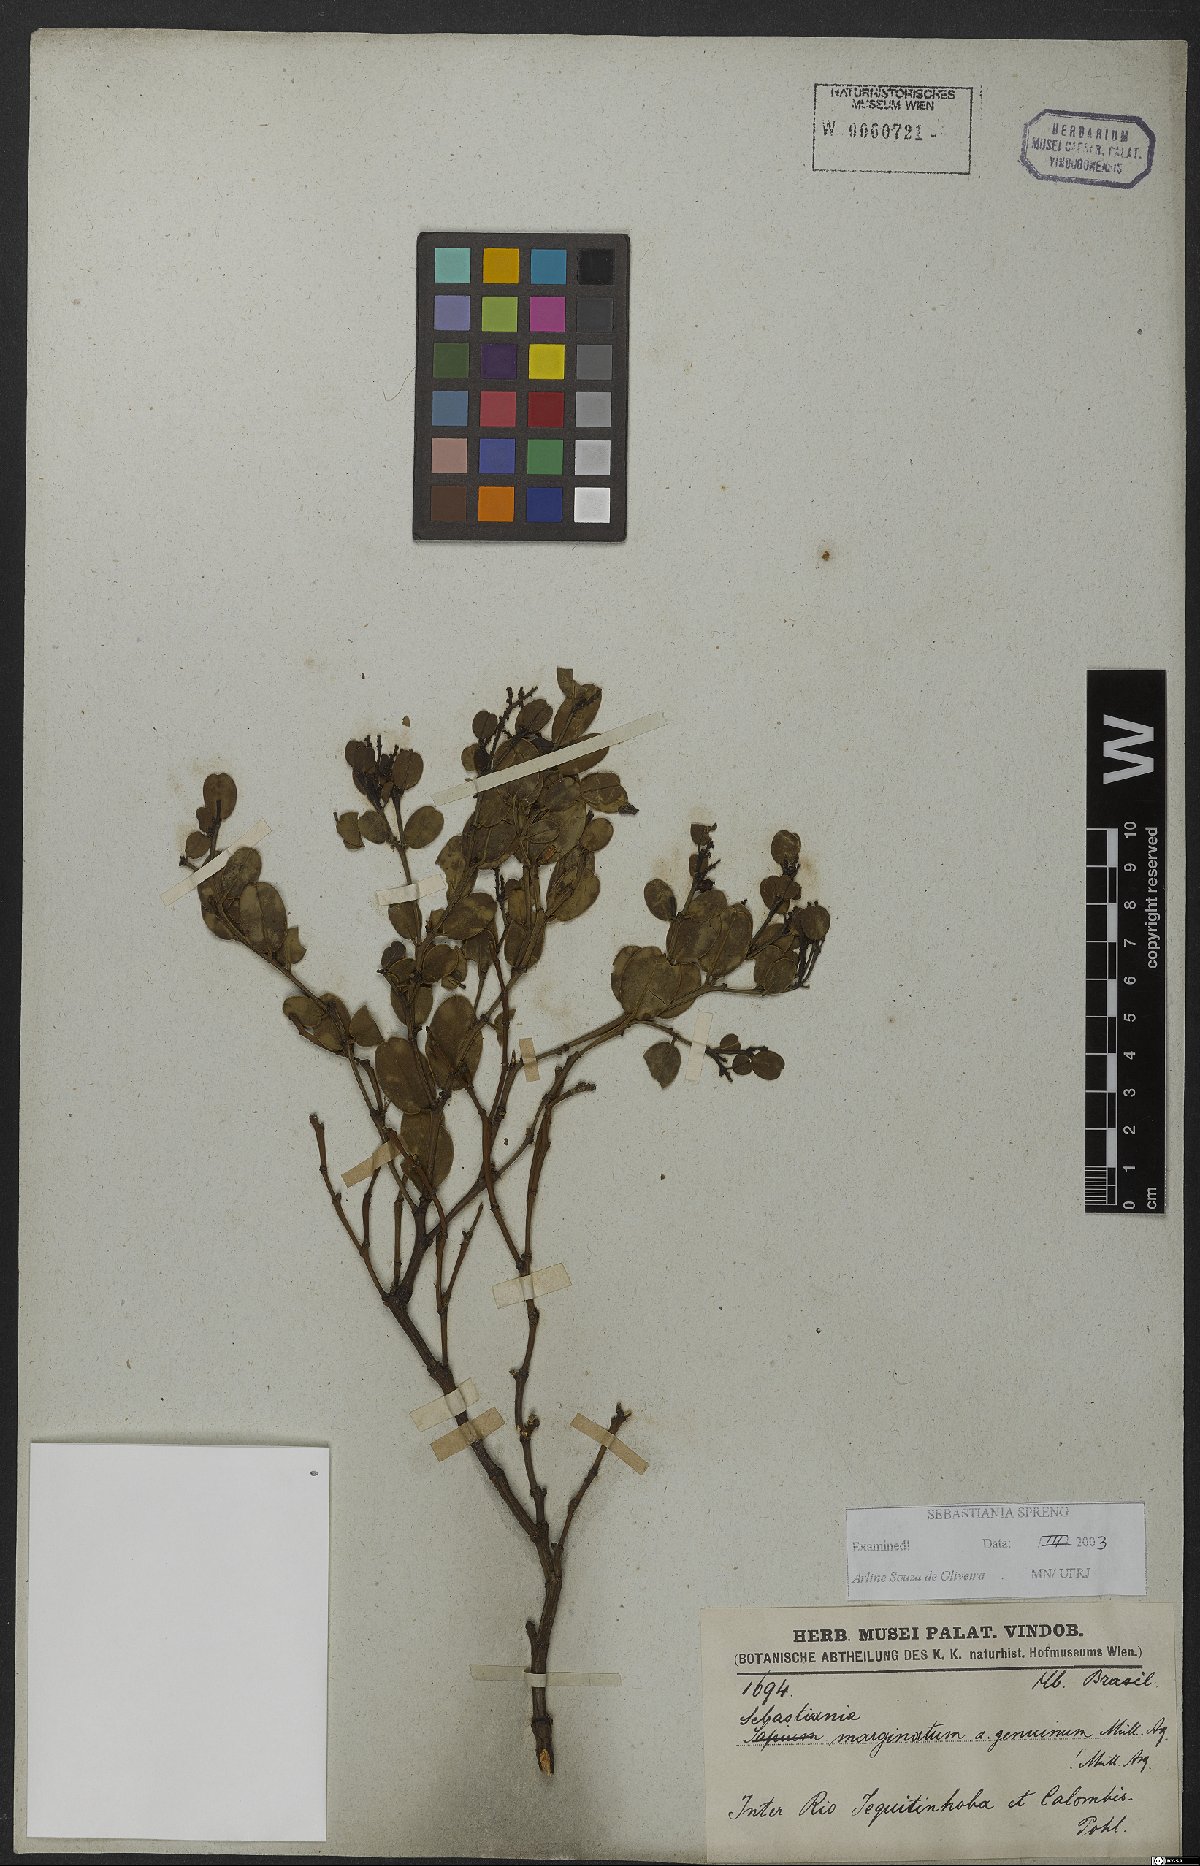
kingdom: Plantae
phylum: Tracheophyta
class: Magnoliopsida
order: Malpighiales
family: Euphorbiaceae
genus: Microstachys
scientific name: Microstachys marginata
